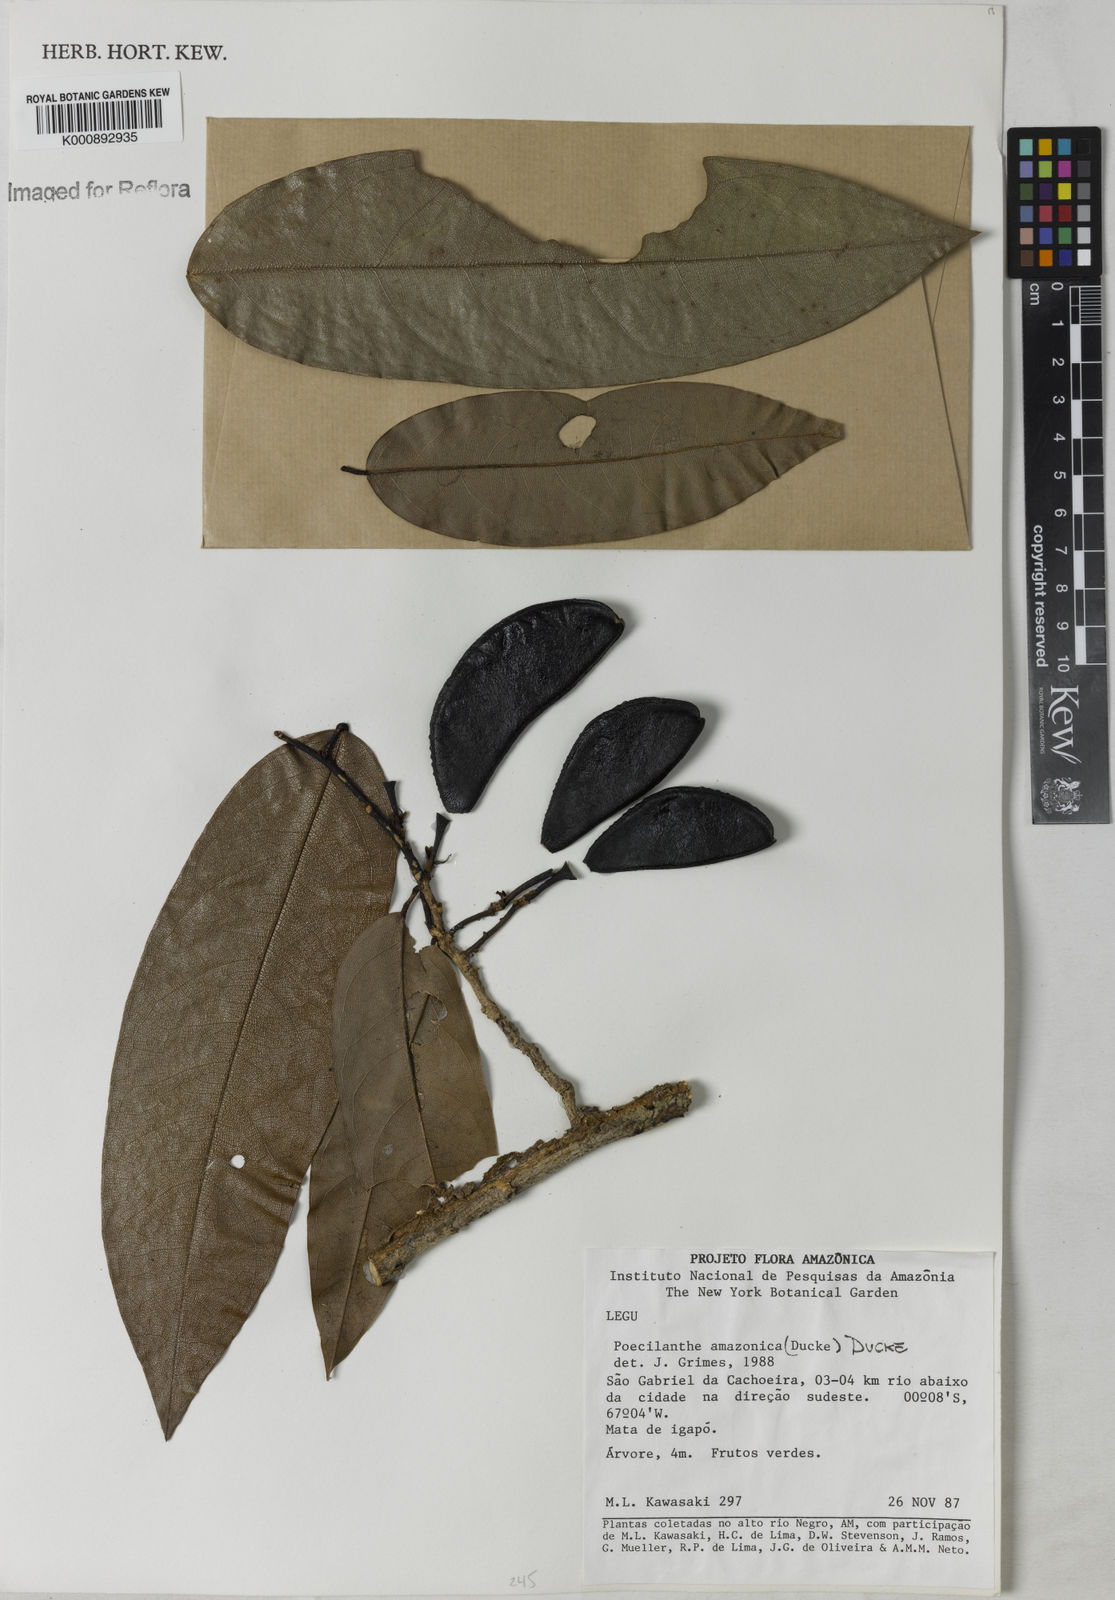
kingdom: Plantae
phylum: Tracheophyta
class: Magnoliopsida
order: Fabales
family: Fabaceae
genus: Limadendron
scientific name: Limadendron amazonicum
